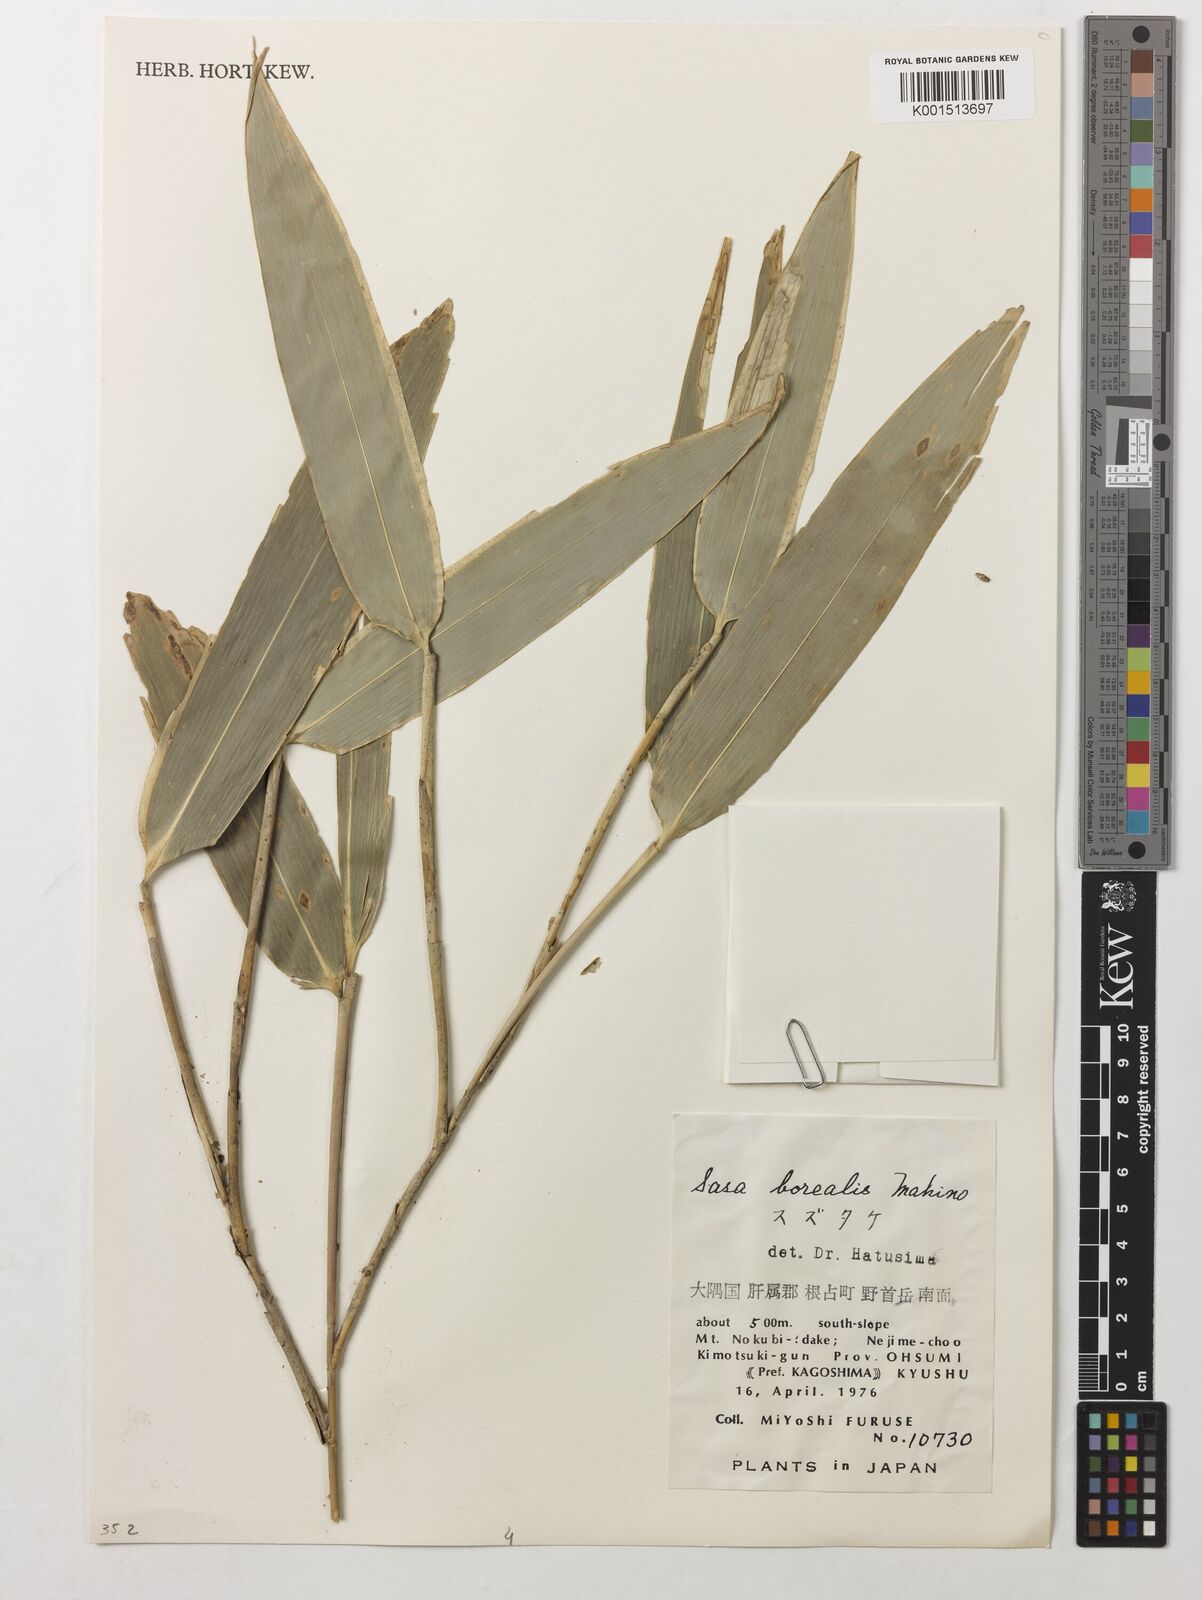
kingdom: Plantae
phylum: Tracheophyta
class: Liliopsida
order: Poales
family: Poaceae
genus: Sasamorpha
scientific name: Sasamorpha borealis
